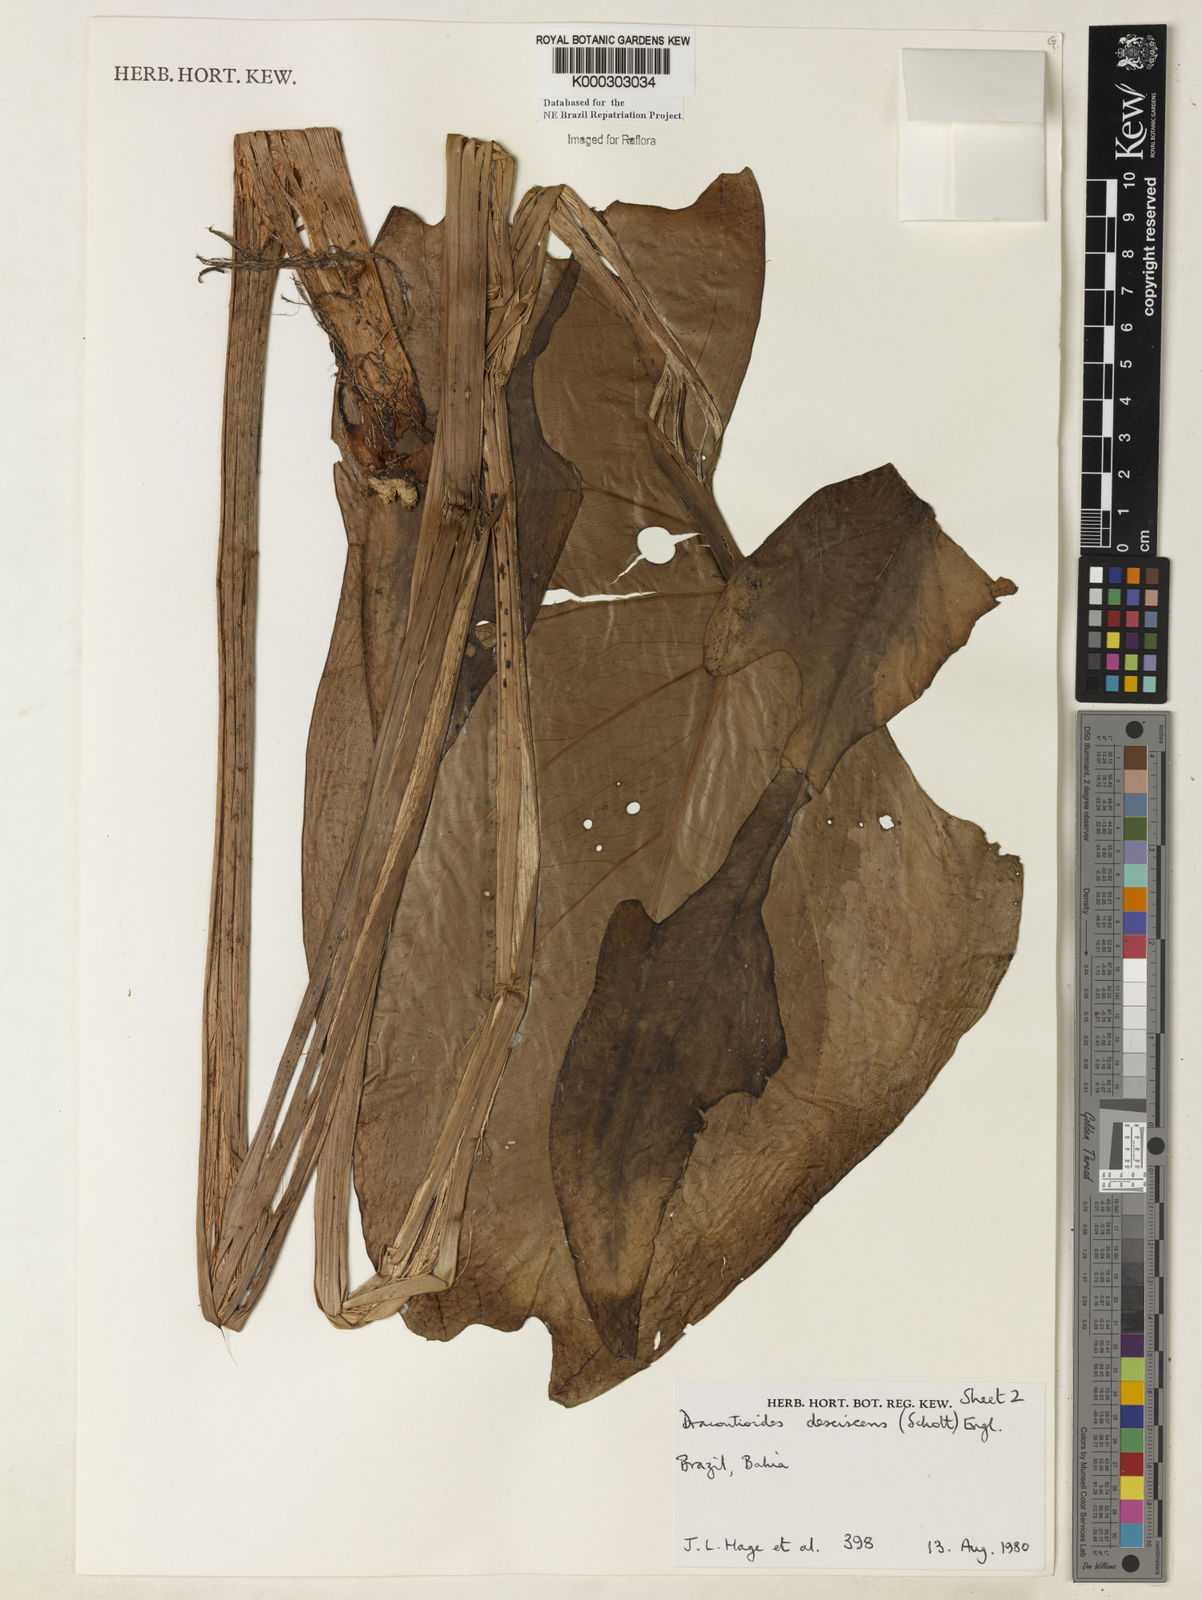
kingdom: Plantae
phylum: Tracheophyta
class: Liliopsida
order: Alismatales
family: Araceae
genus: Dracontioides
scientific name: Dracontioides desciscens
